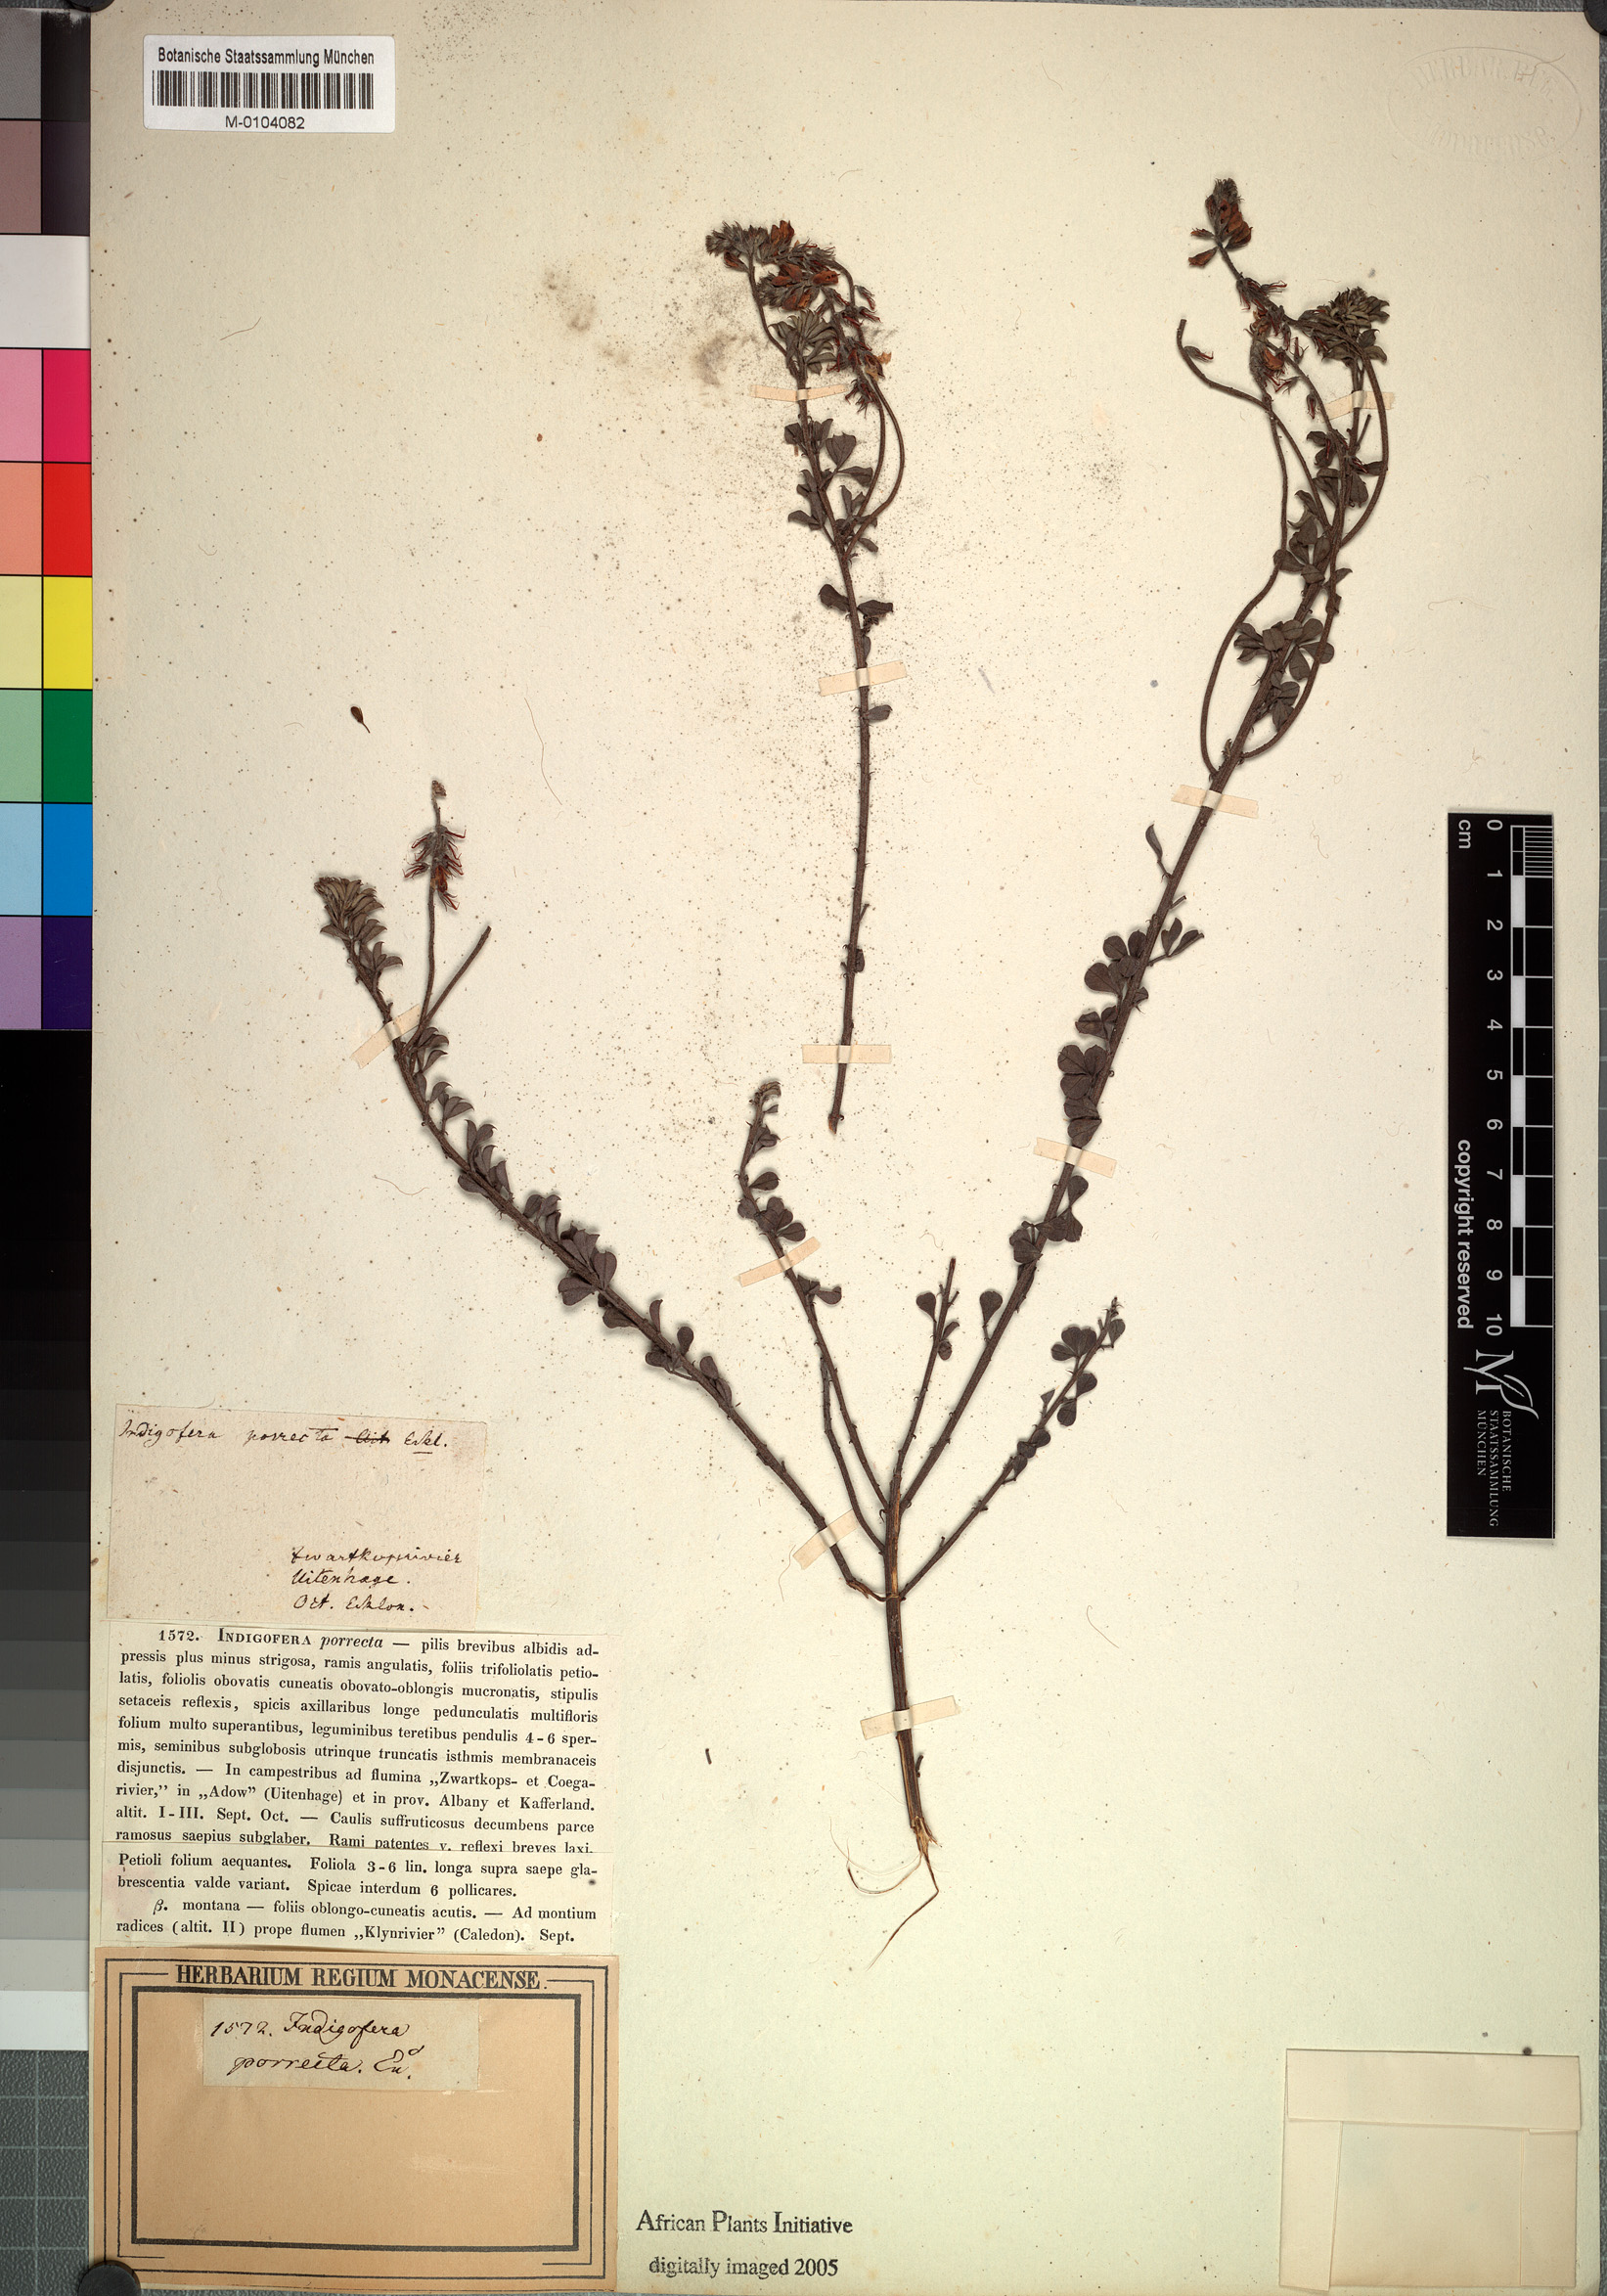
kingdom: Plantae
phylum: Tracheophyta
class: Magnoliopsida
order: Fabales
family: Fabaceae
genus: Indigofera
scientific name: Indigofera porrecta
